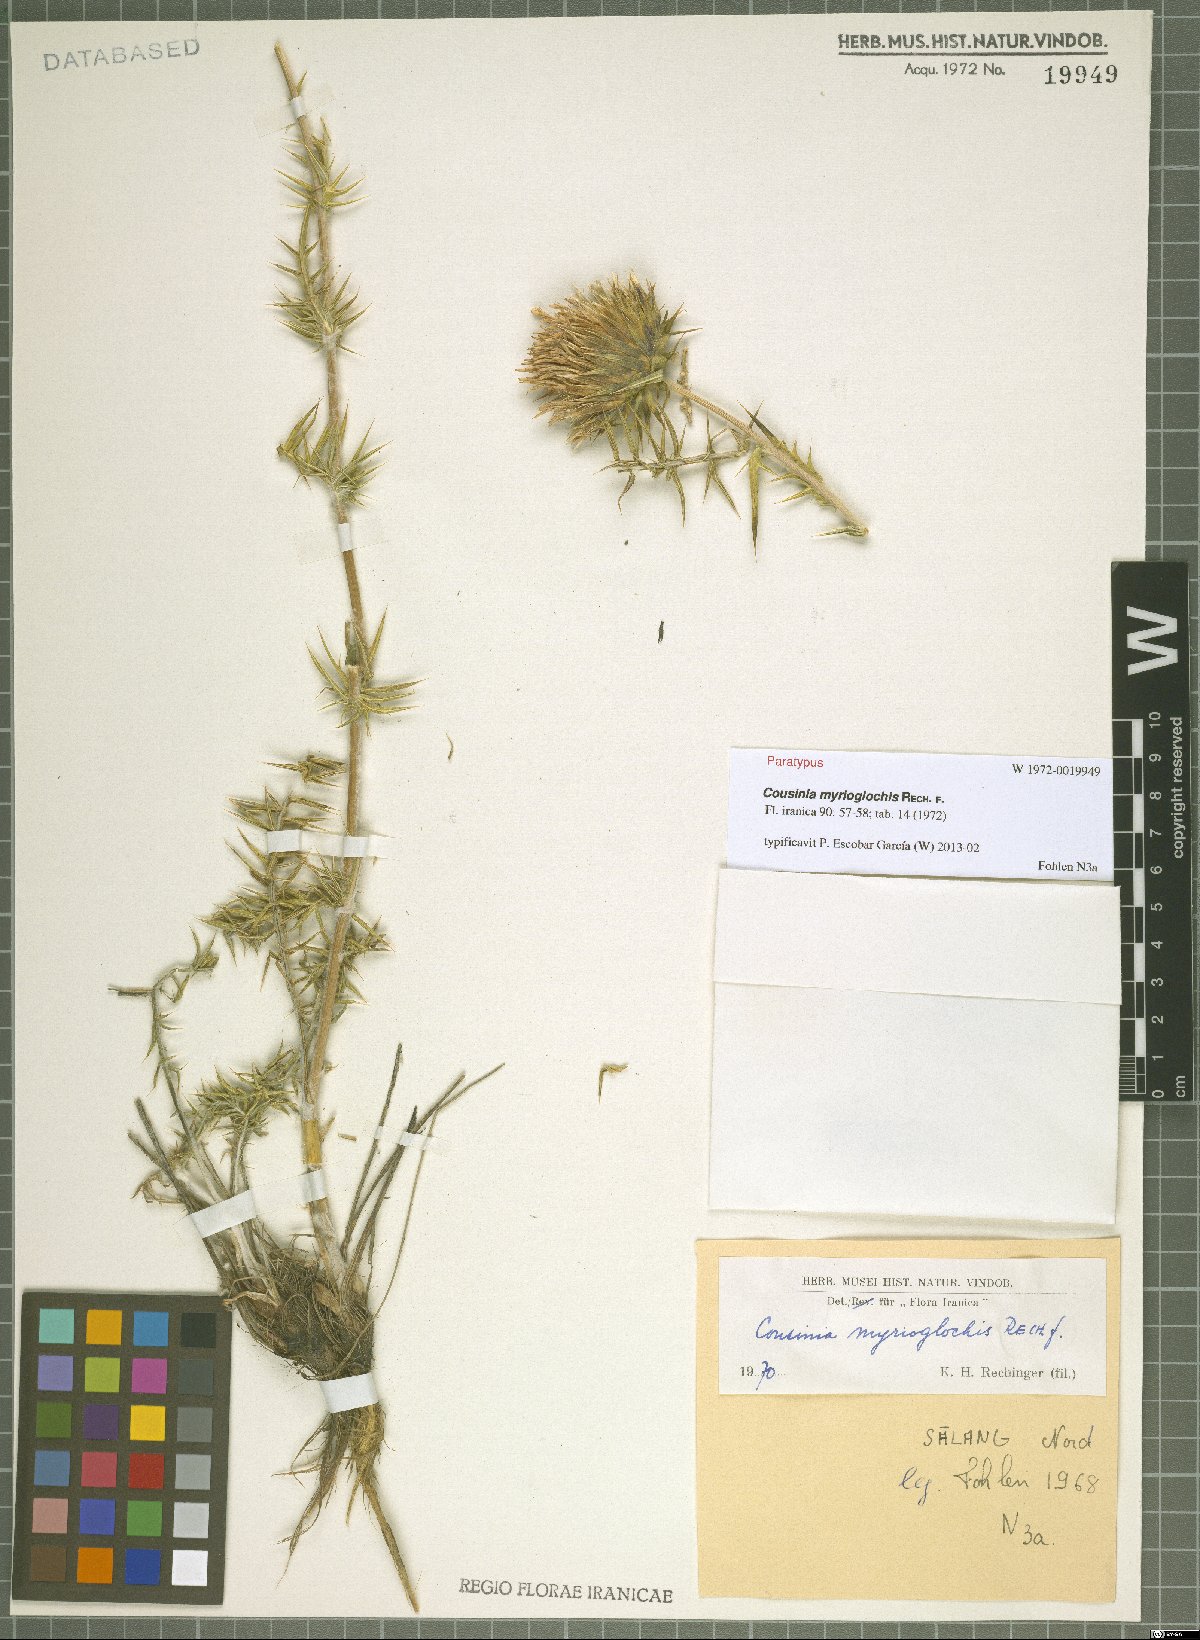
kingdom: Plantae
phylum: Tracheophyta
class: Magnoliopsida
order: Asterales
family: Asteraceae
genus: Cousinia
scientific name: Cousinia myrioglochis
